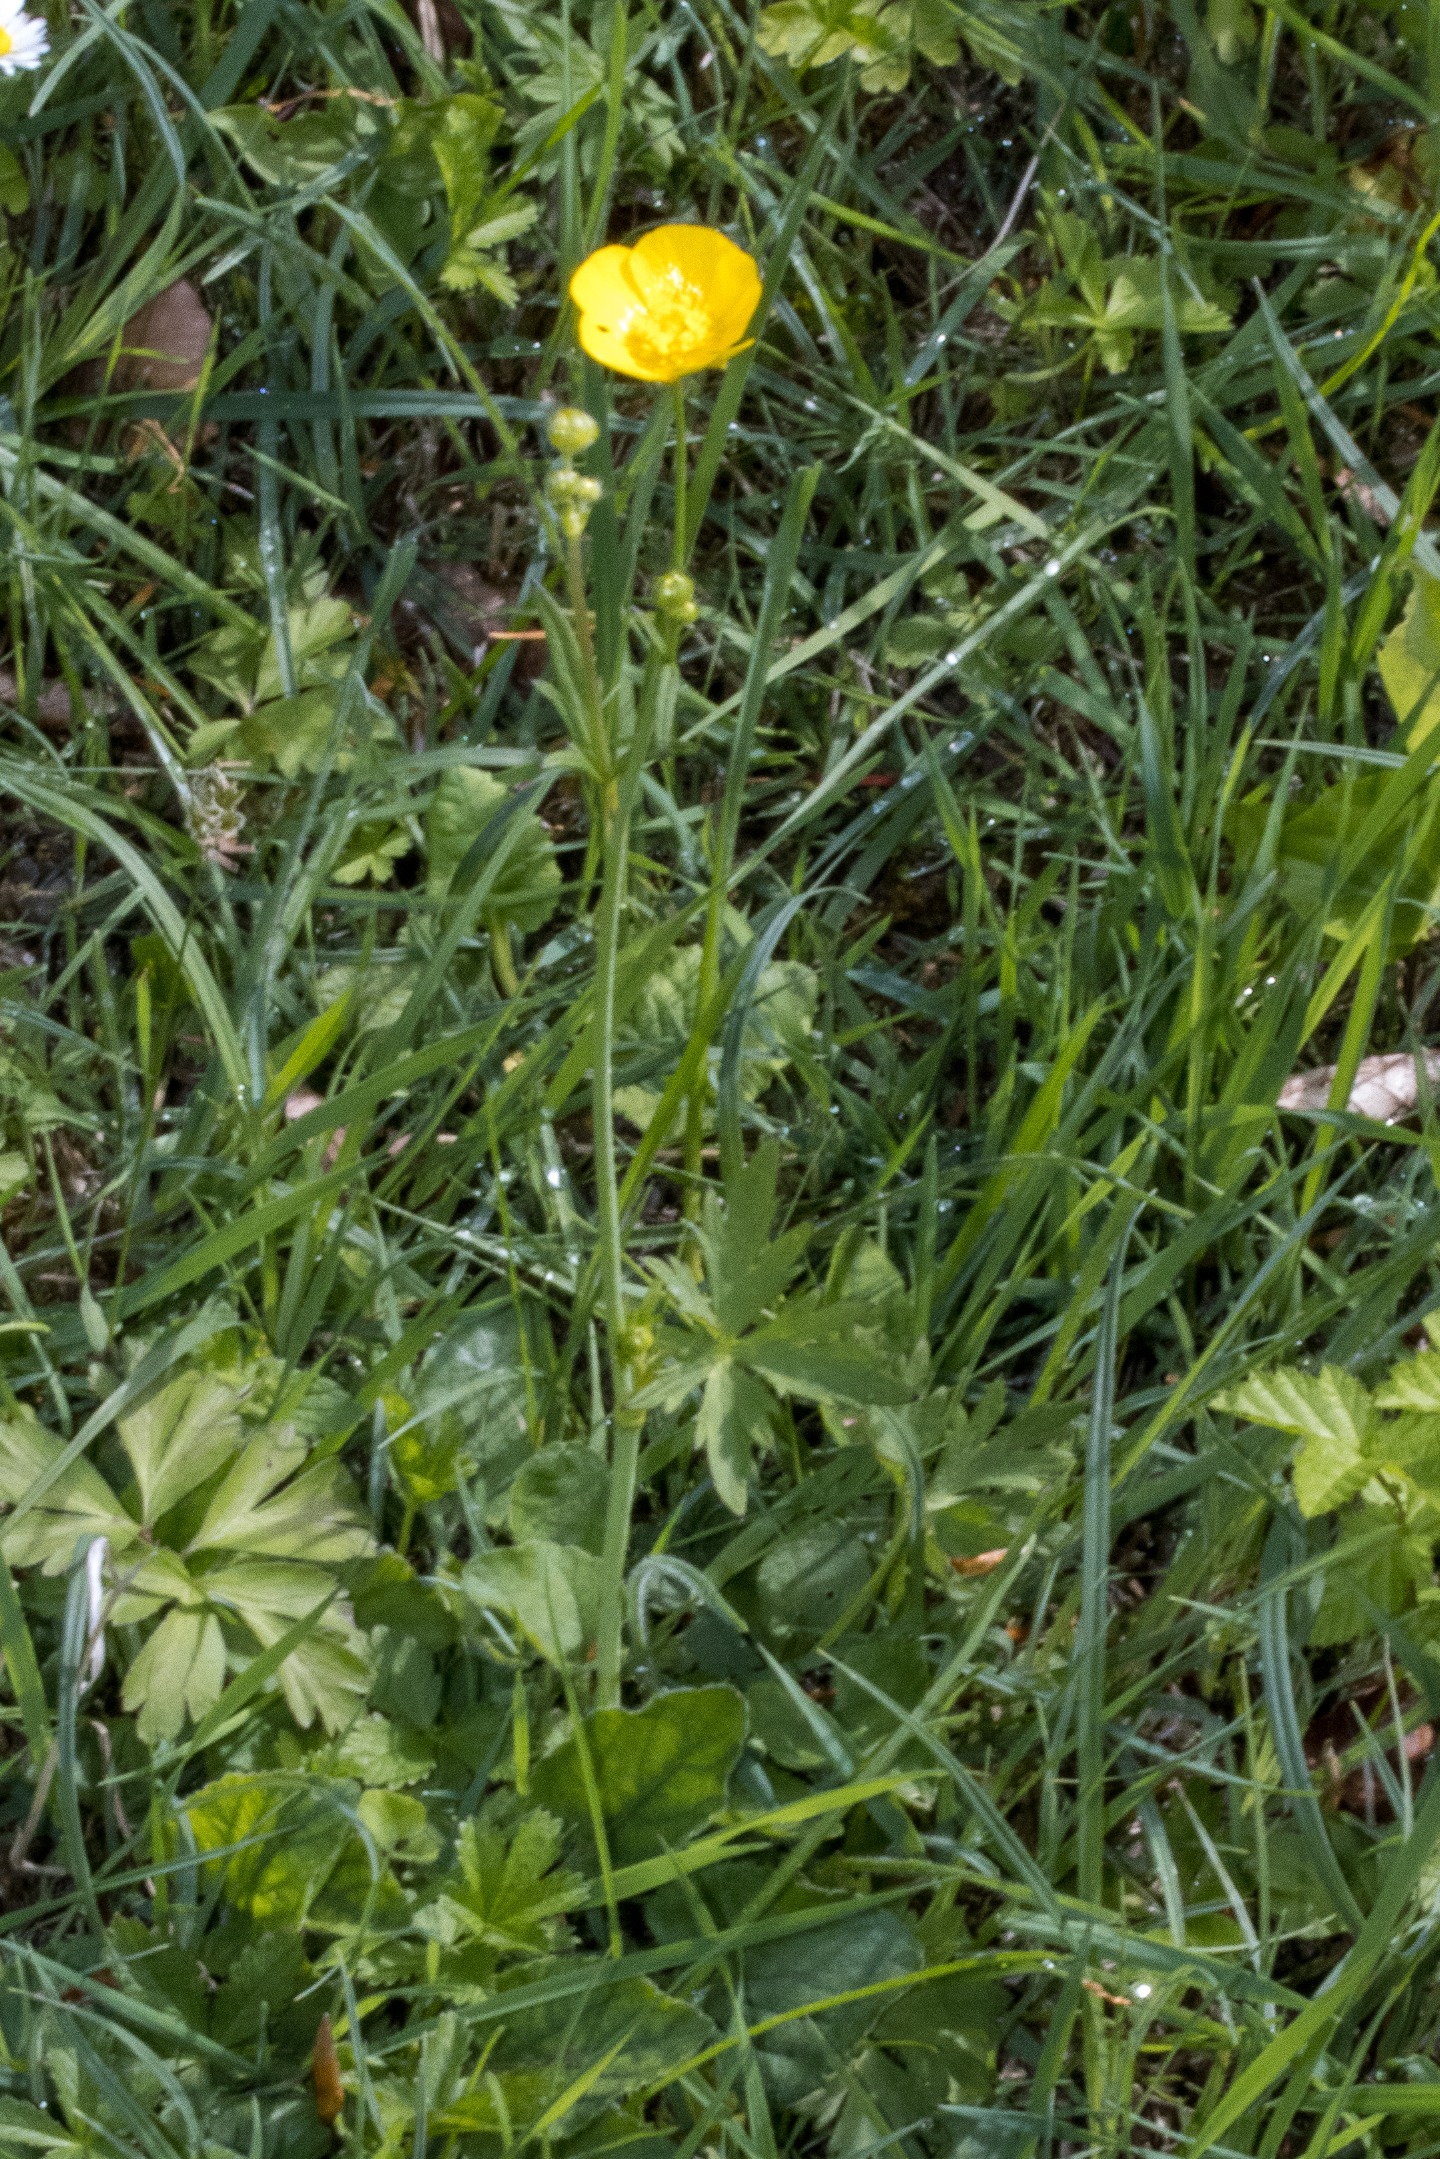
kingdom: Plantae
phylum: Tracheophyta
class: Magnoliopsida
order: Ranunculales
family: Ranunculaceae
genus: Ranunculus
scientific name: Ranunculus acris
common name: Bidende ranunkel (underart)
